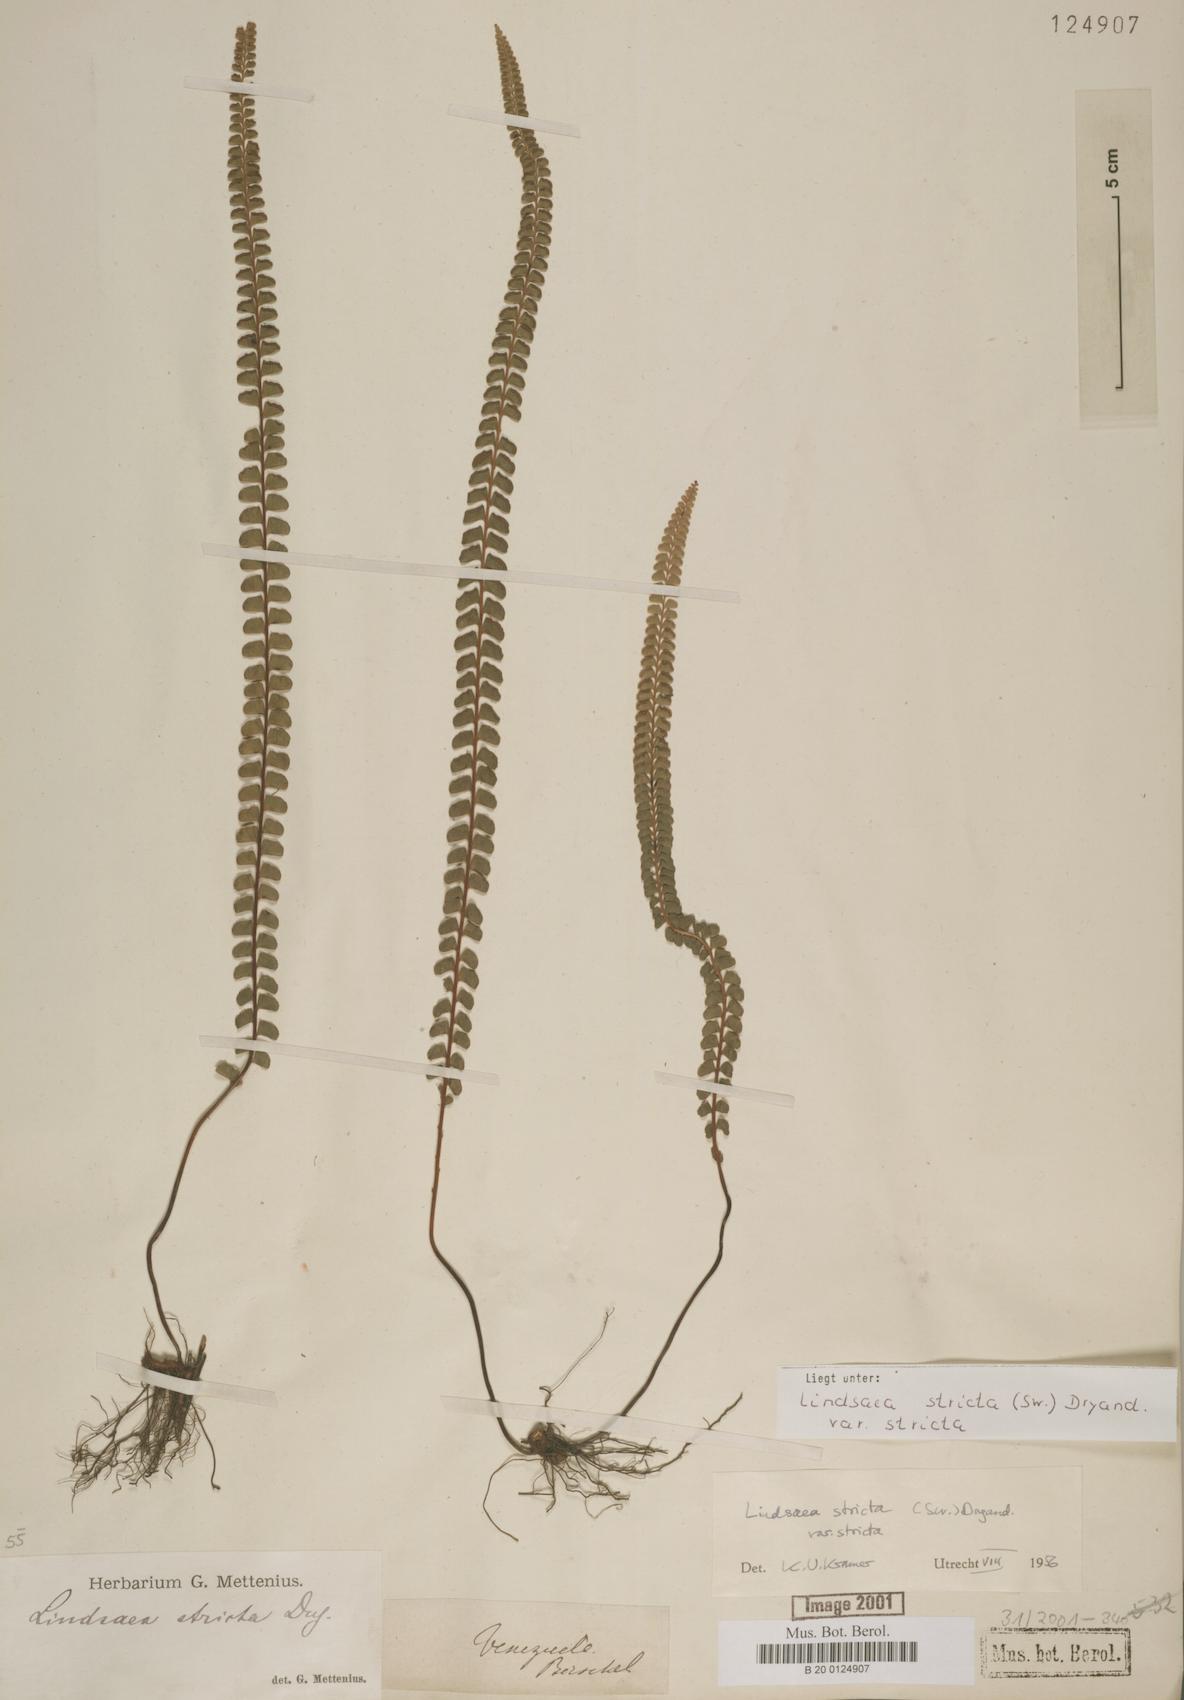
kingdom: Plantae
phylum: Tracheophyta
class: Polypodiopsida
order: Polypodiales
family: Lindsaeaceae
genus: Lindsaea
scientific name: Lindsaea stricta
